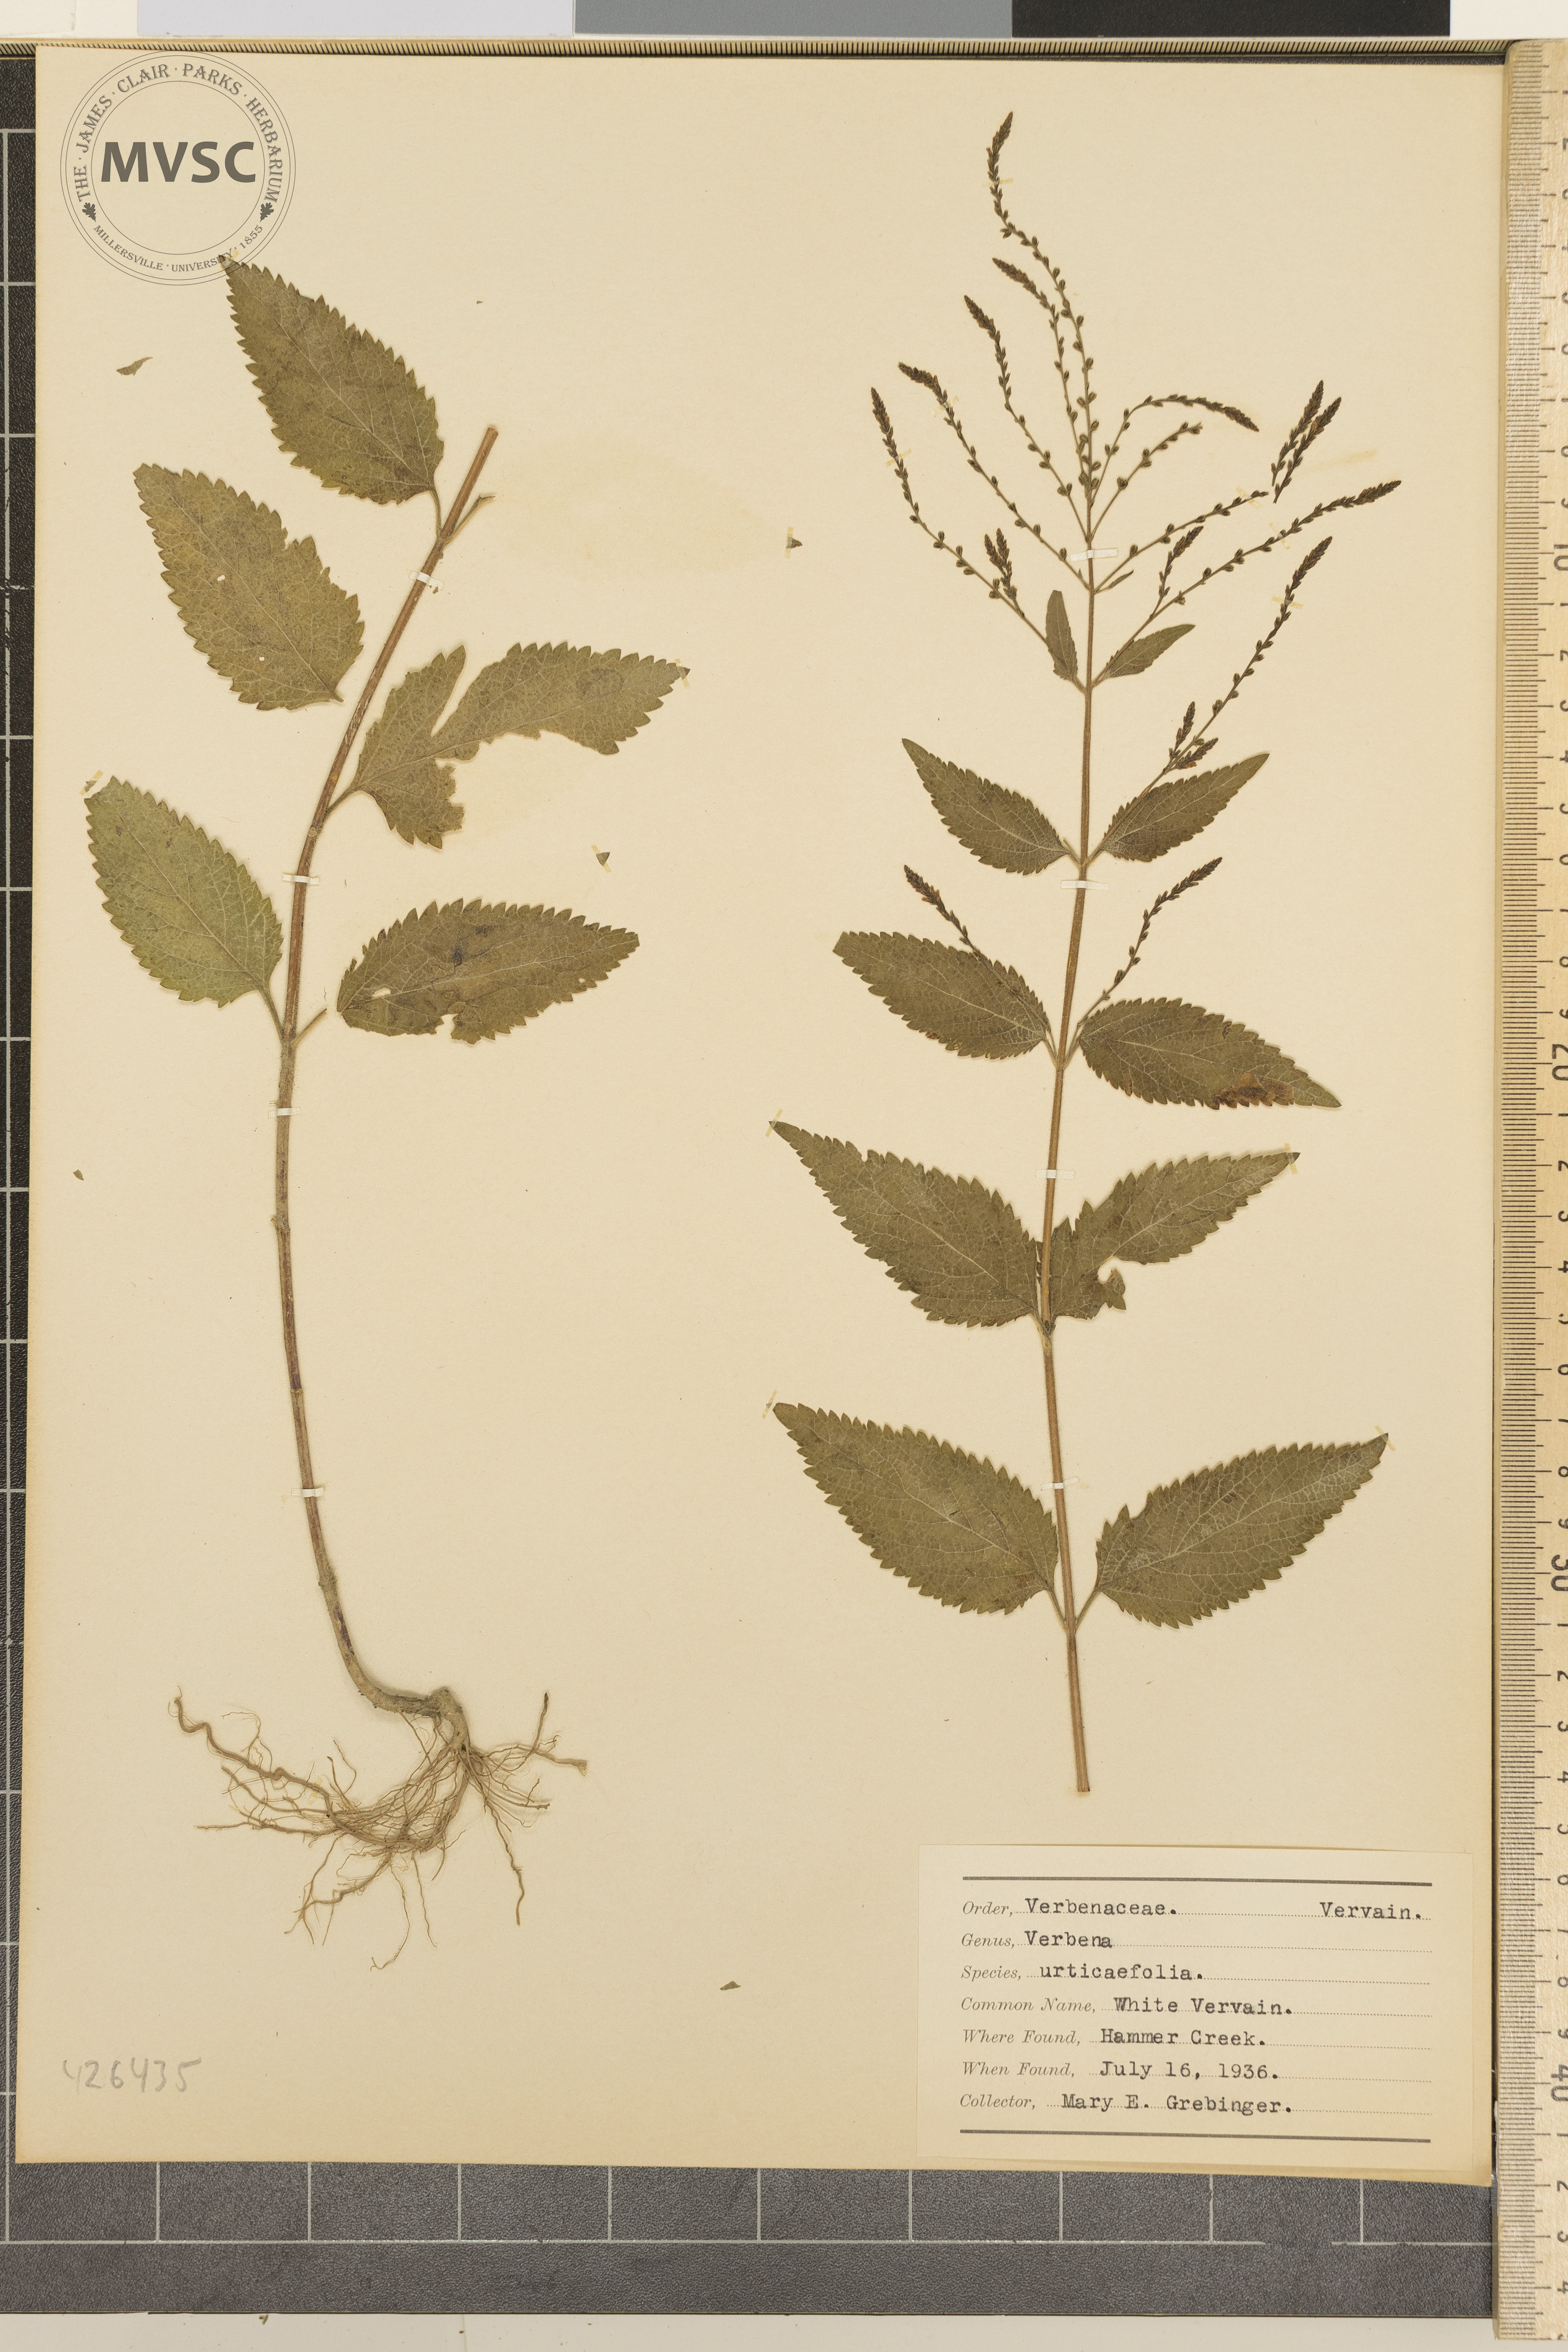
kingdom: Plantae
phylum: Tracheophyta
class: Magnoliopsida
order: Lamiales
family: Verbenaceae
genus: Verbena
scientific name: Verbena urticifolia
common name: White vervain
